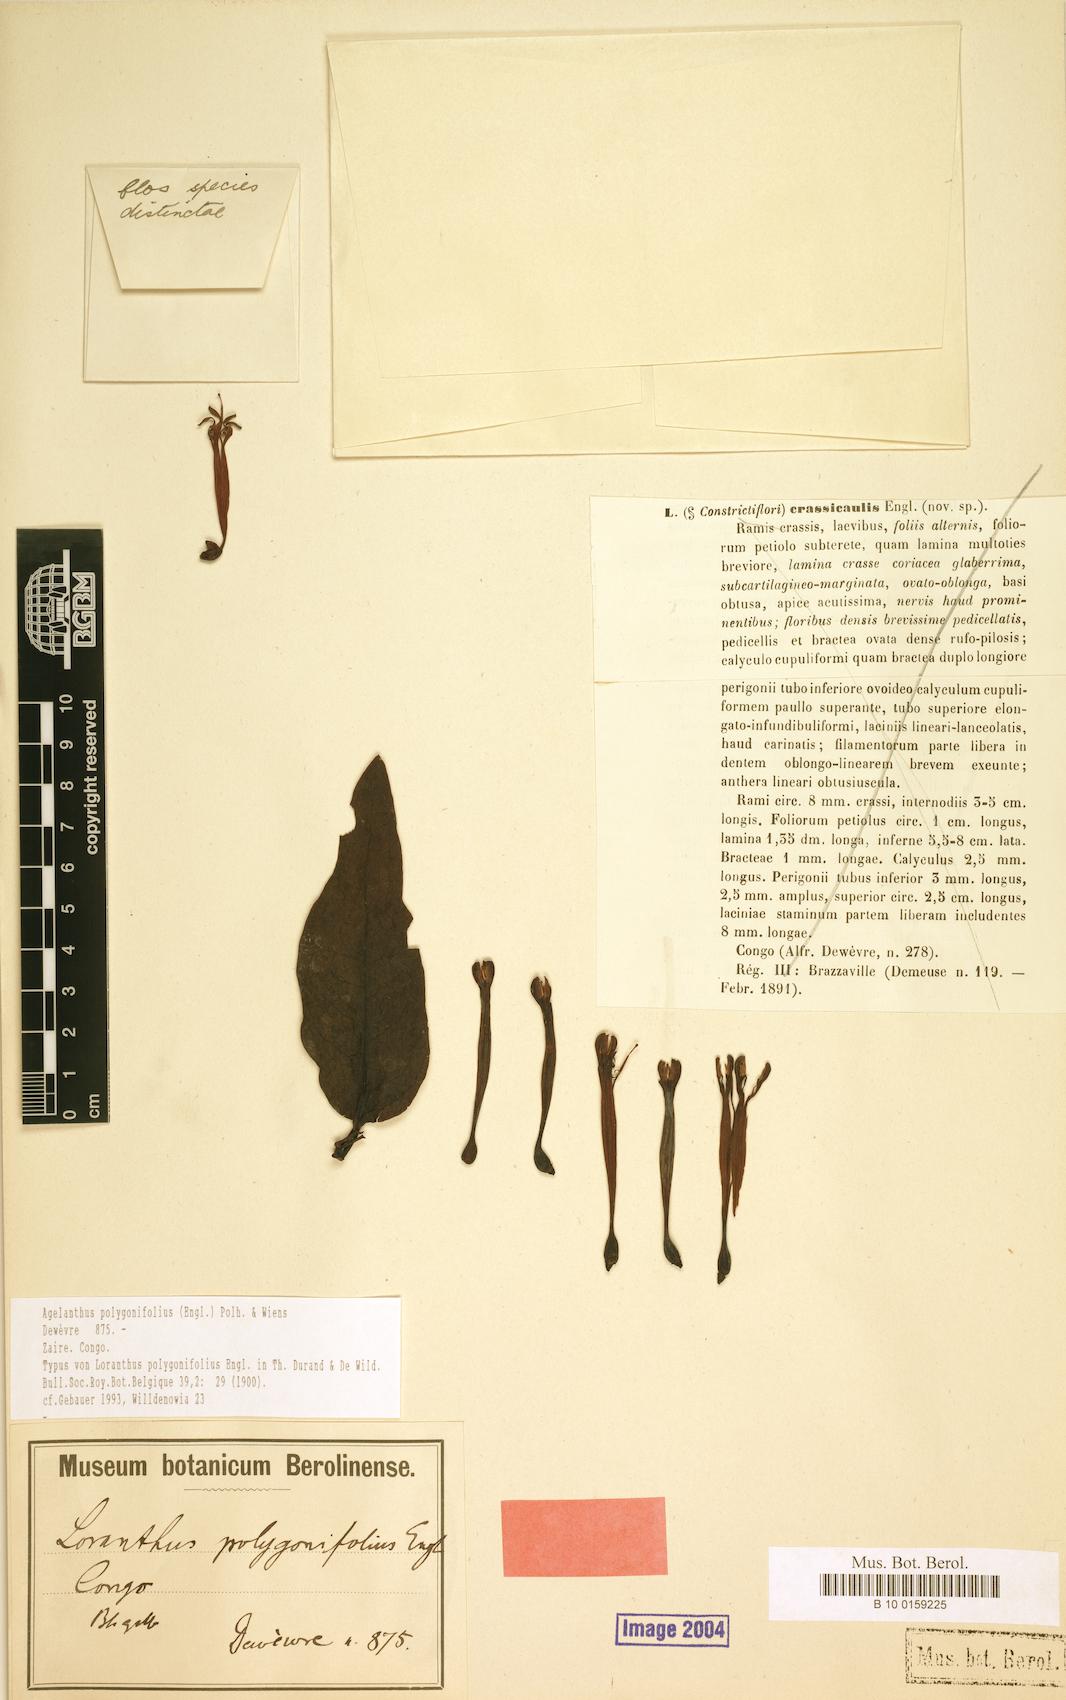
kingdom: Plantae
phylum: Tracheophyta
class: Magnoliopsida
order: Santalales
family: Loranthaceae
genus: Agelanthus
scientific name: Agelanthus polygonifolius
